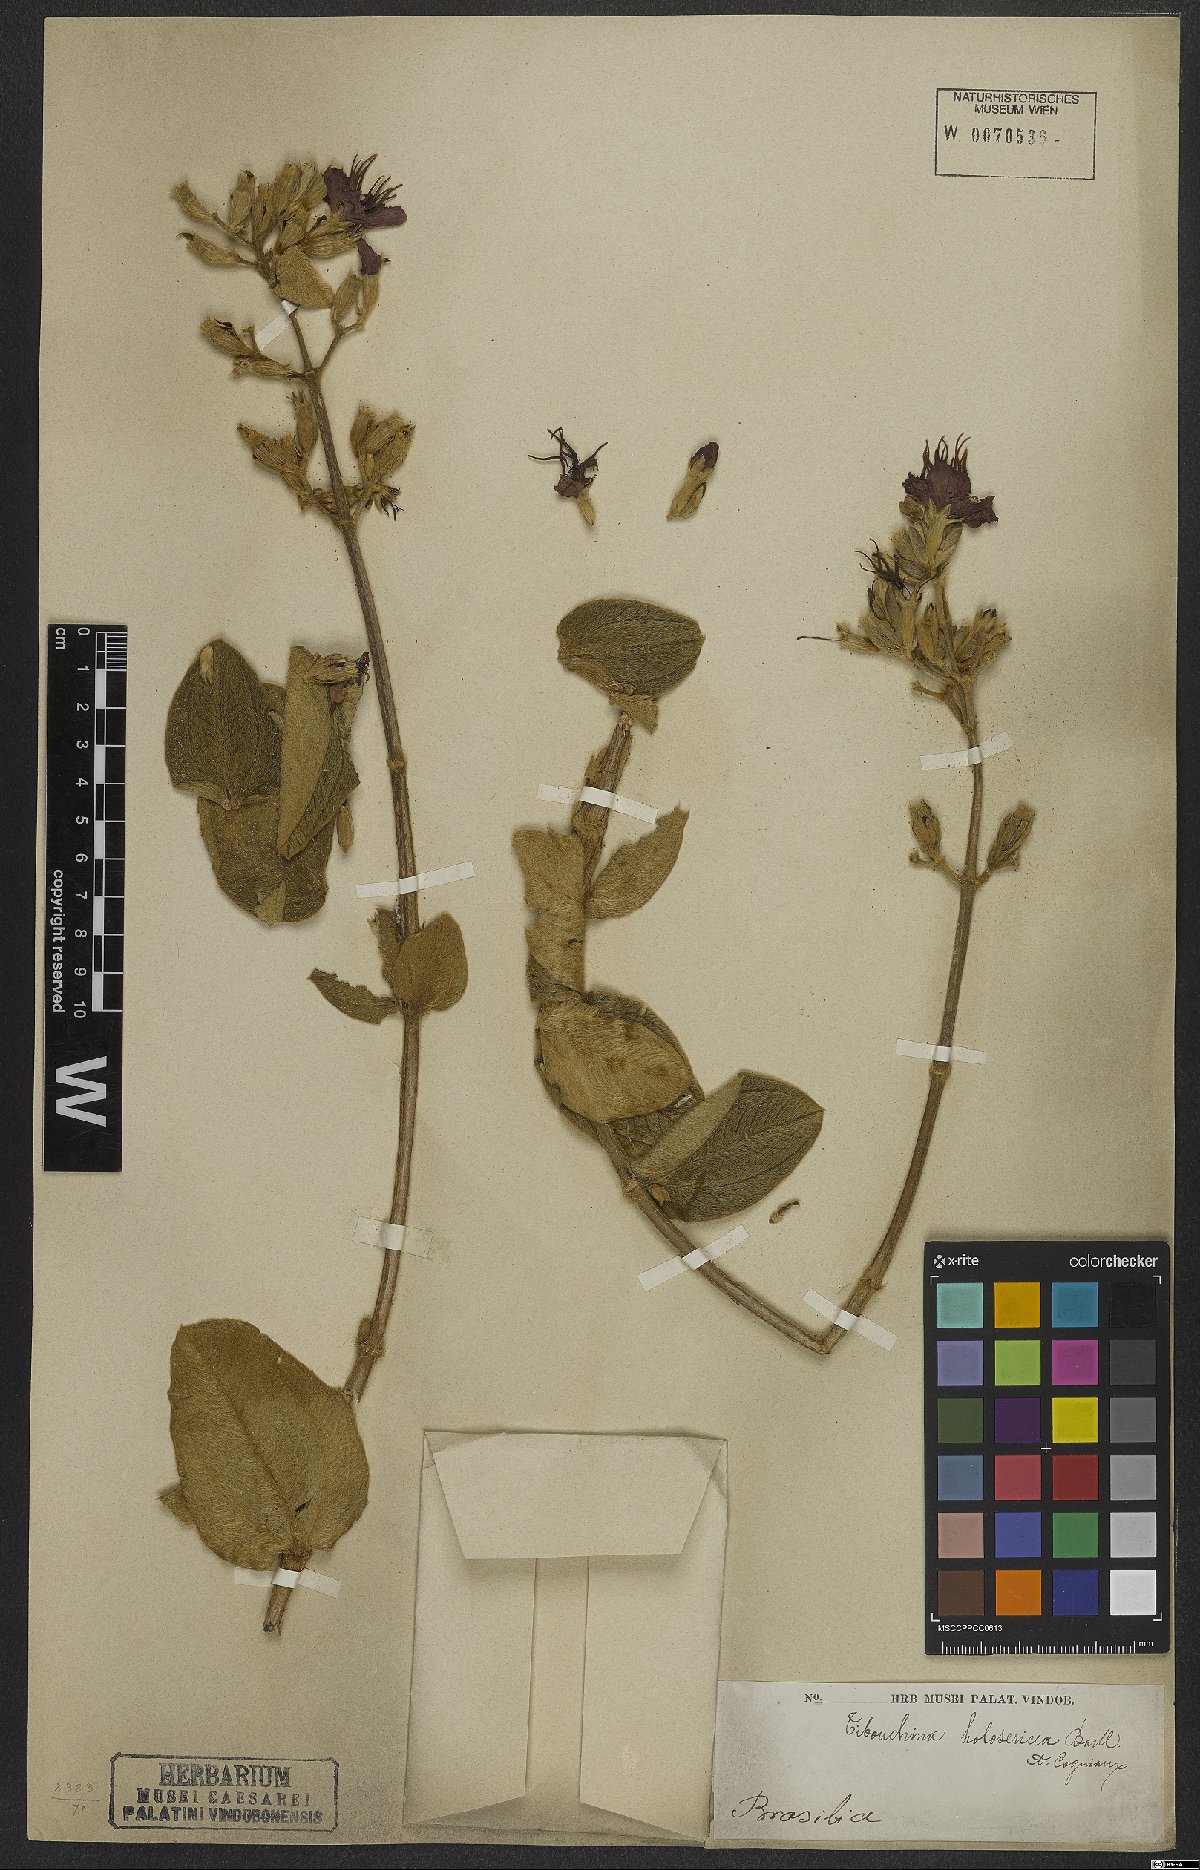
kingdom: Plantae
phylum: Tracheophyta
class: Magnoliopsida
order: Myrtales
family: Melastomataceae
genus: Pleroma
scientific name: Pleroma clavatum
